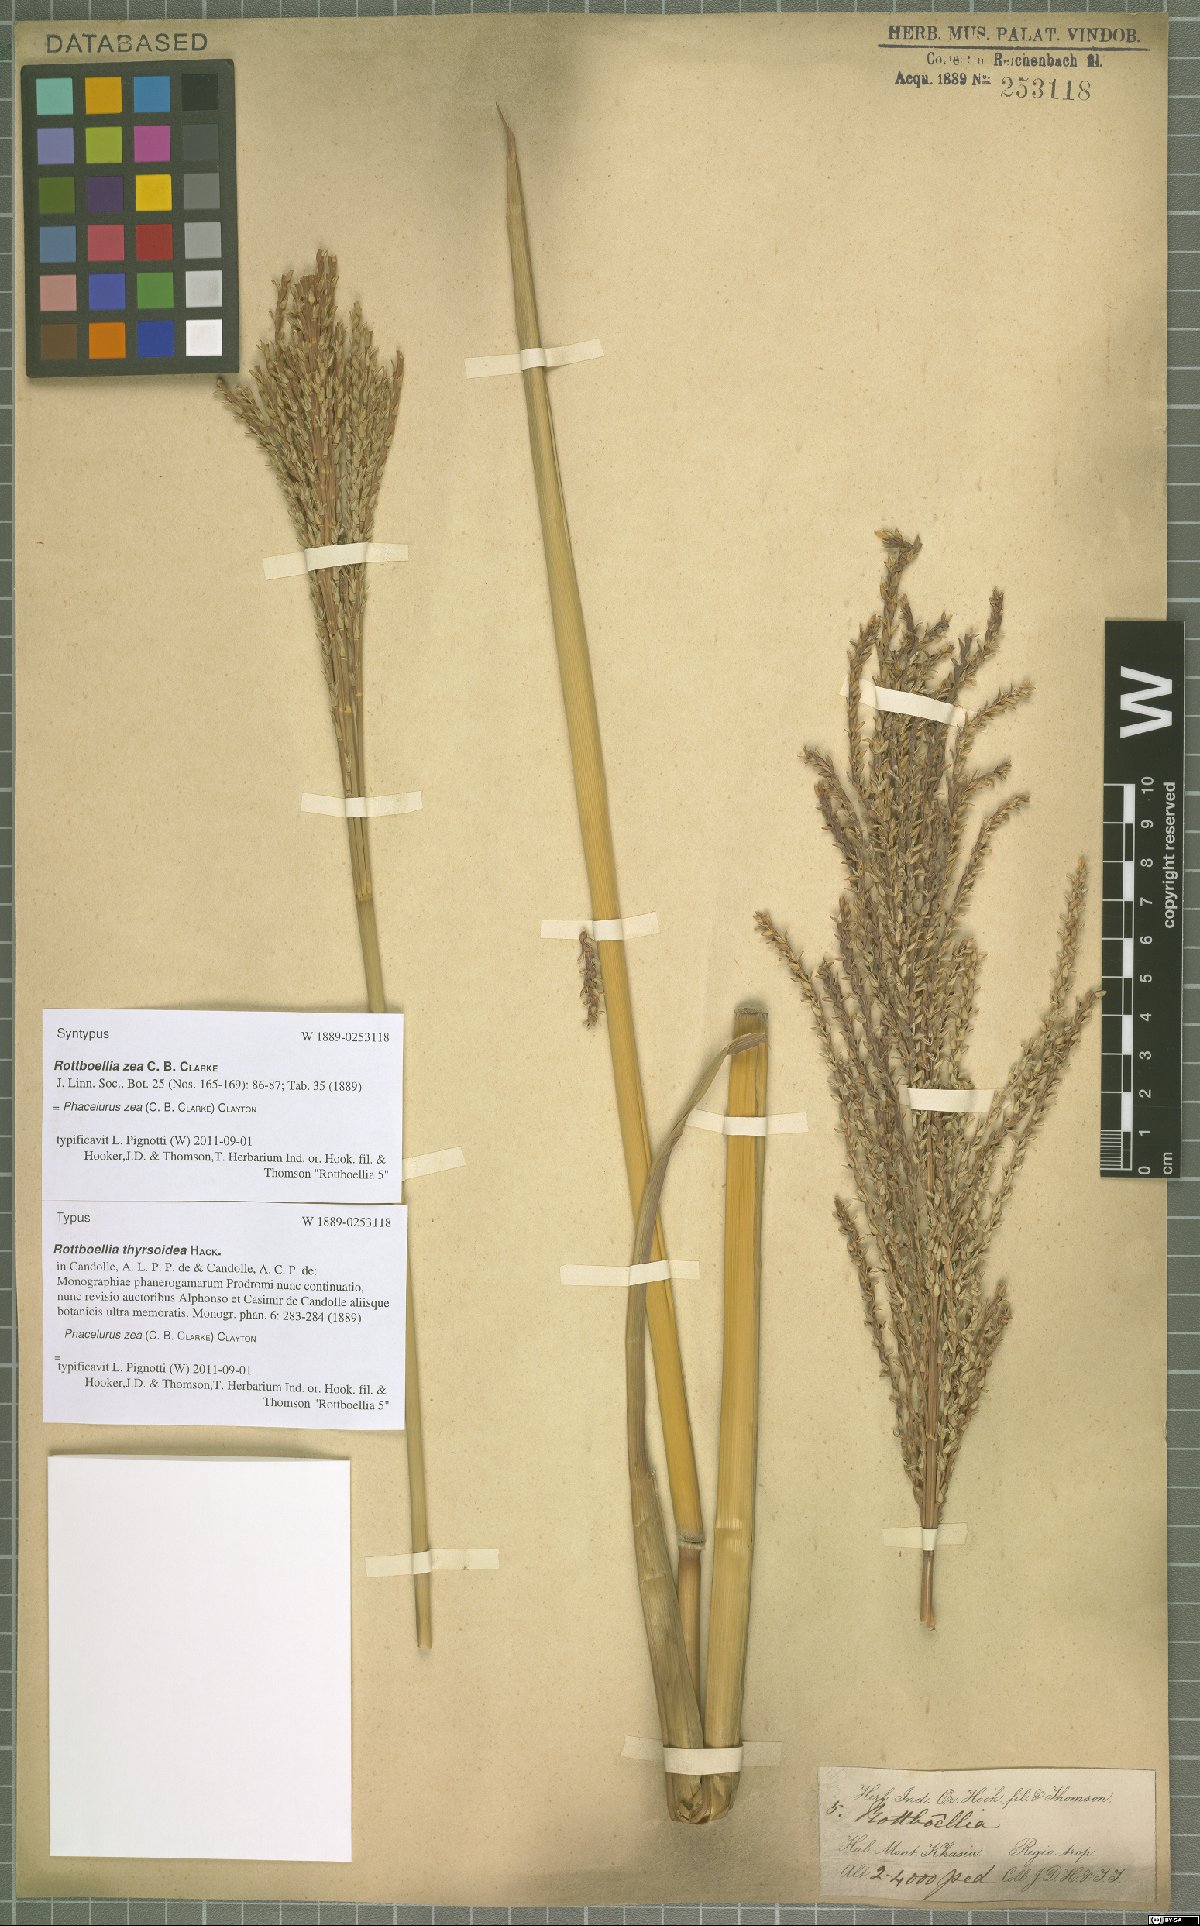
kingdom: Plantae
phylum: Tracheophyta
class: Liliopsida
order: Poales
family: Poaceae
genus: Thyrsia
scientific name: Thyrsia zea
